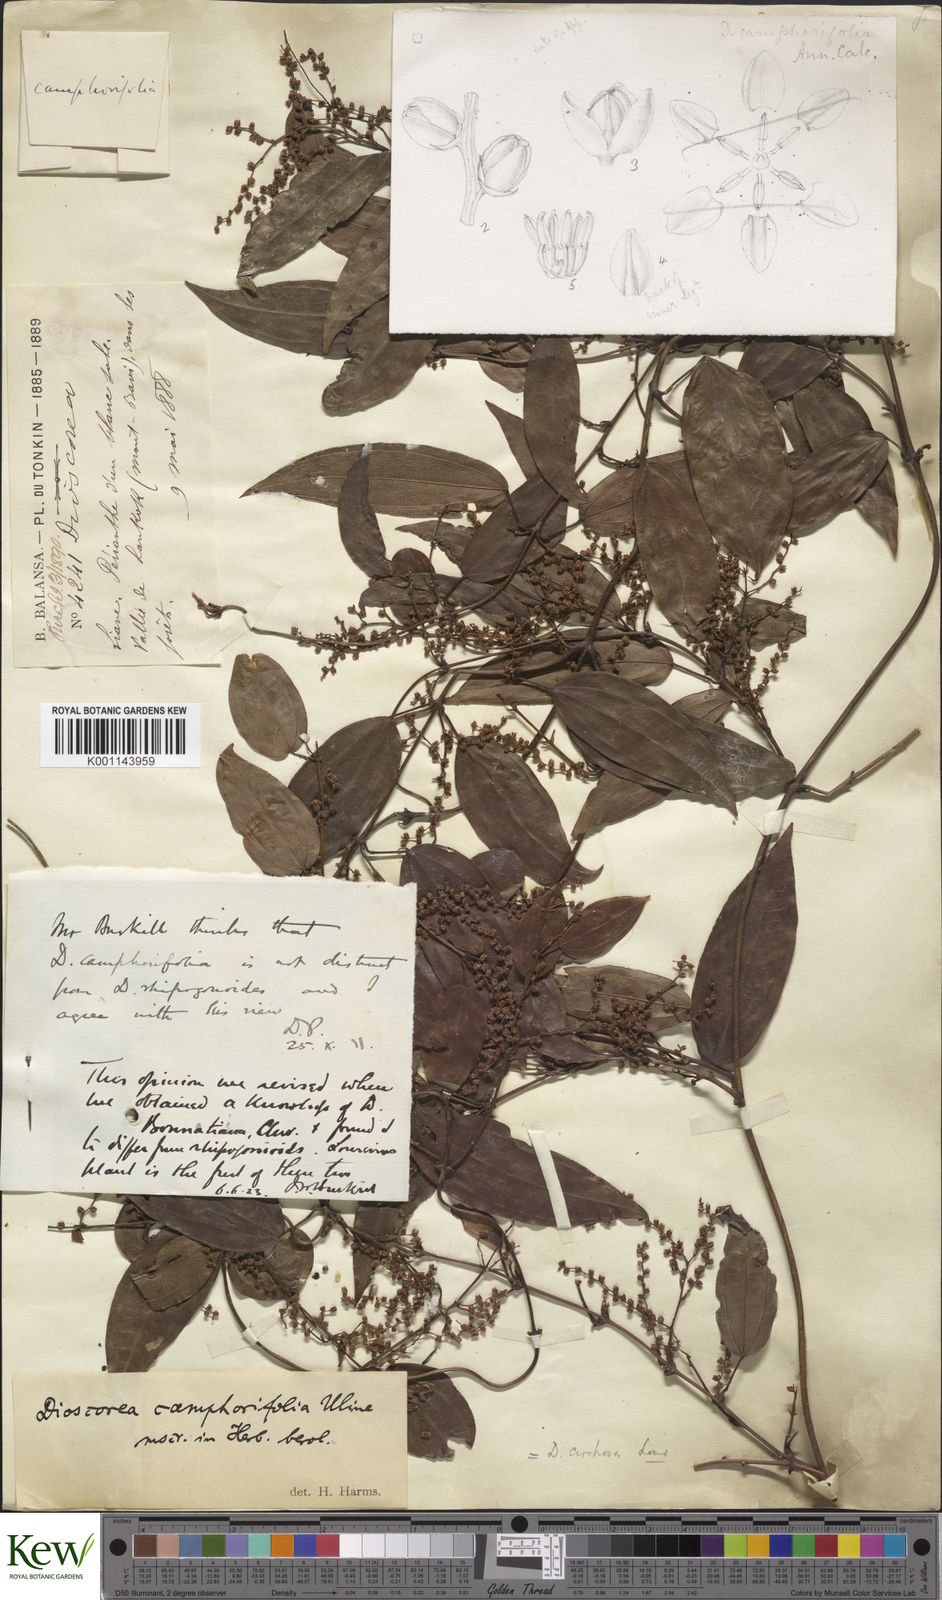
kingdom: Plantae
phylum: Tracheophyta
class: Liliopsida
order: Dioscoreales
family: Dioscoreaceae
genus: Dioscorea
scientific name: Dioscorea cirrhosa
